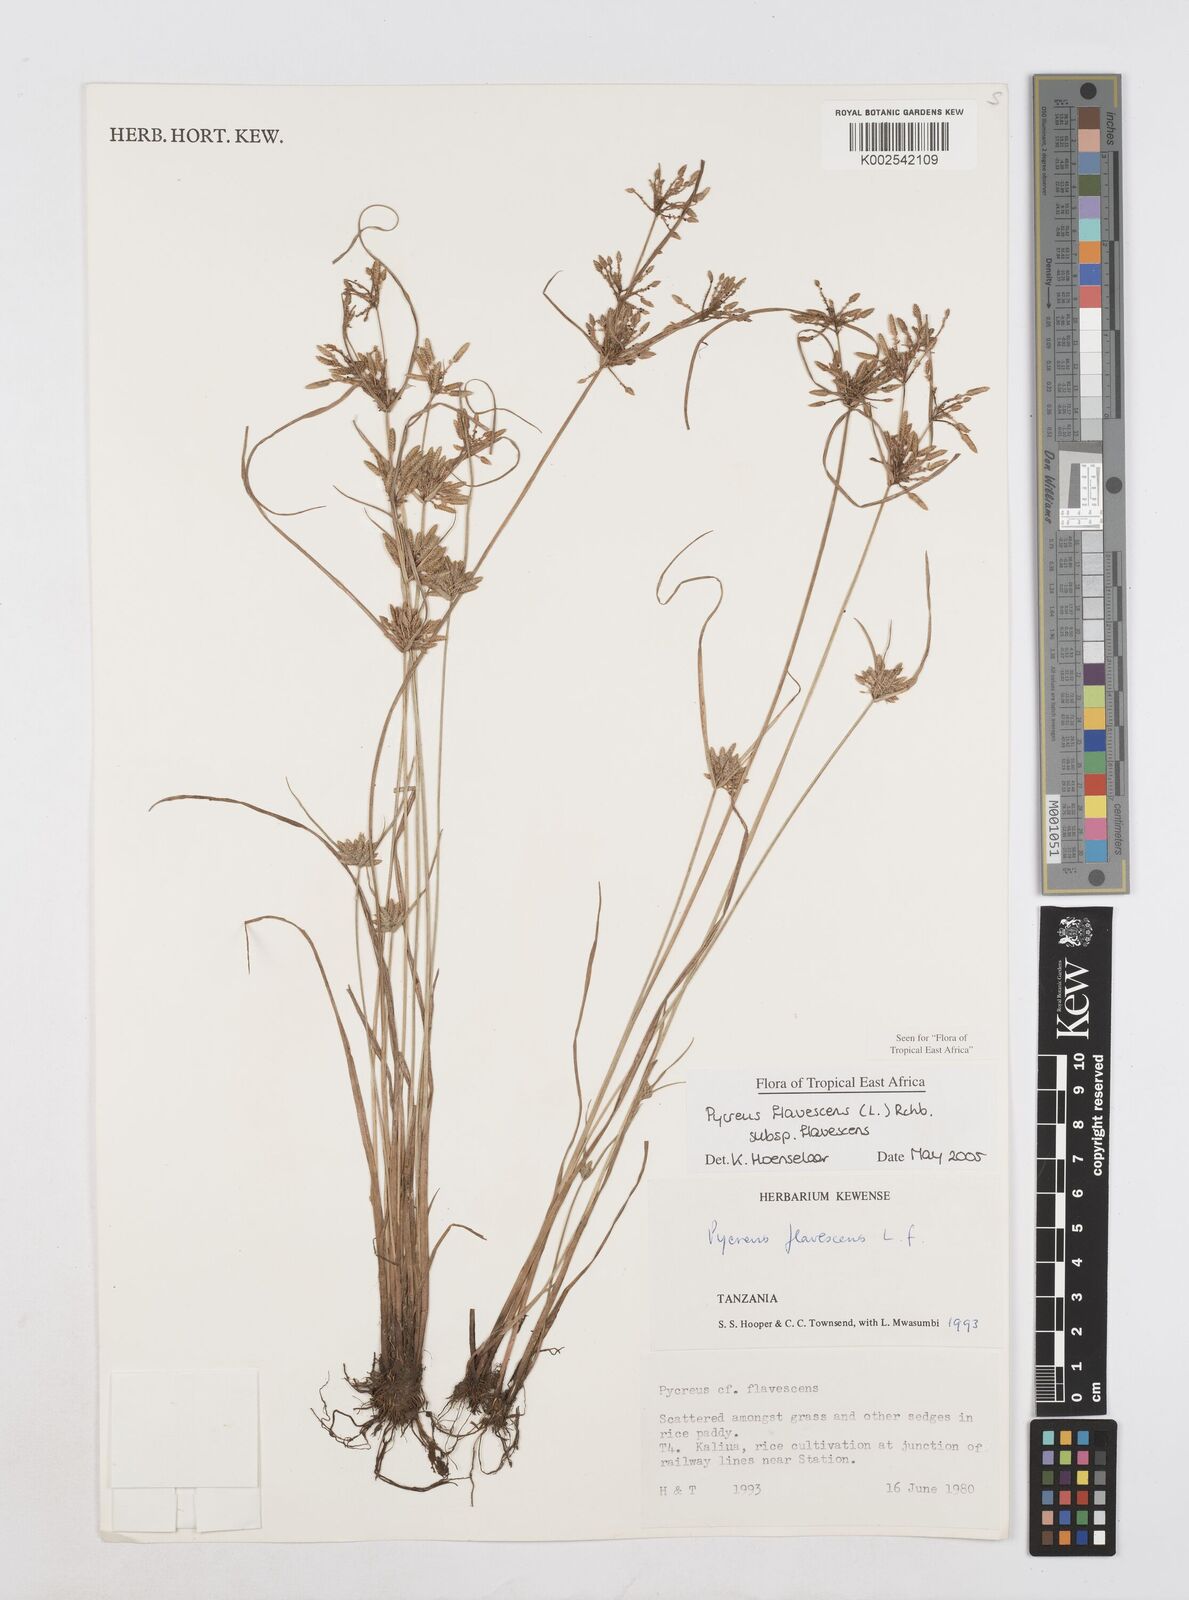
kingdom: Plantae
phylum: Tracheophyta
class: Liliopsida
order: Poales
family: Cyperaceae
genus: Cyperus
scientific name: Cyperus flavescens
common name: Yellow galingale
